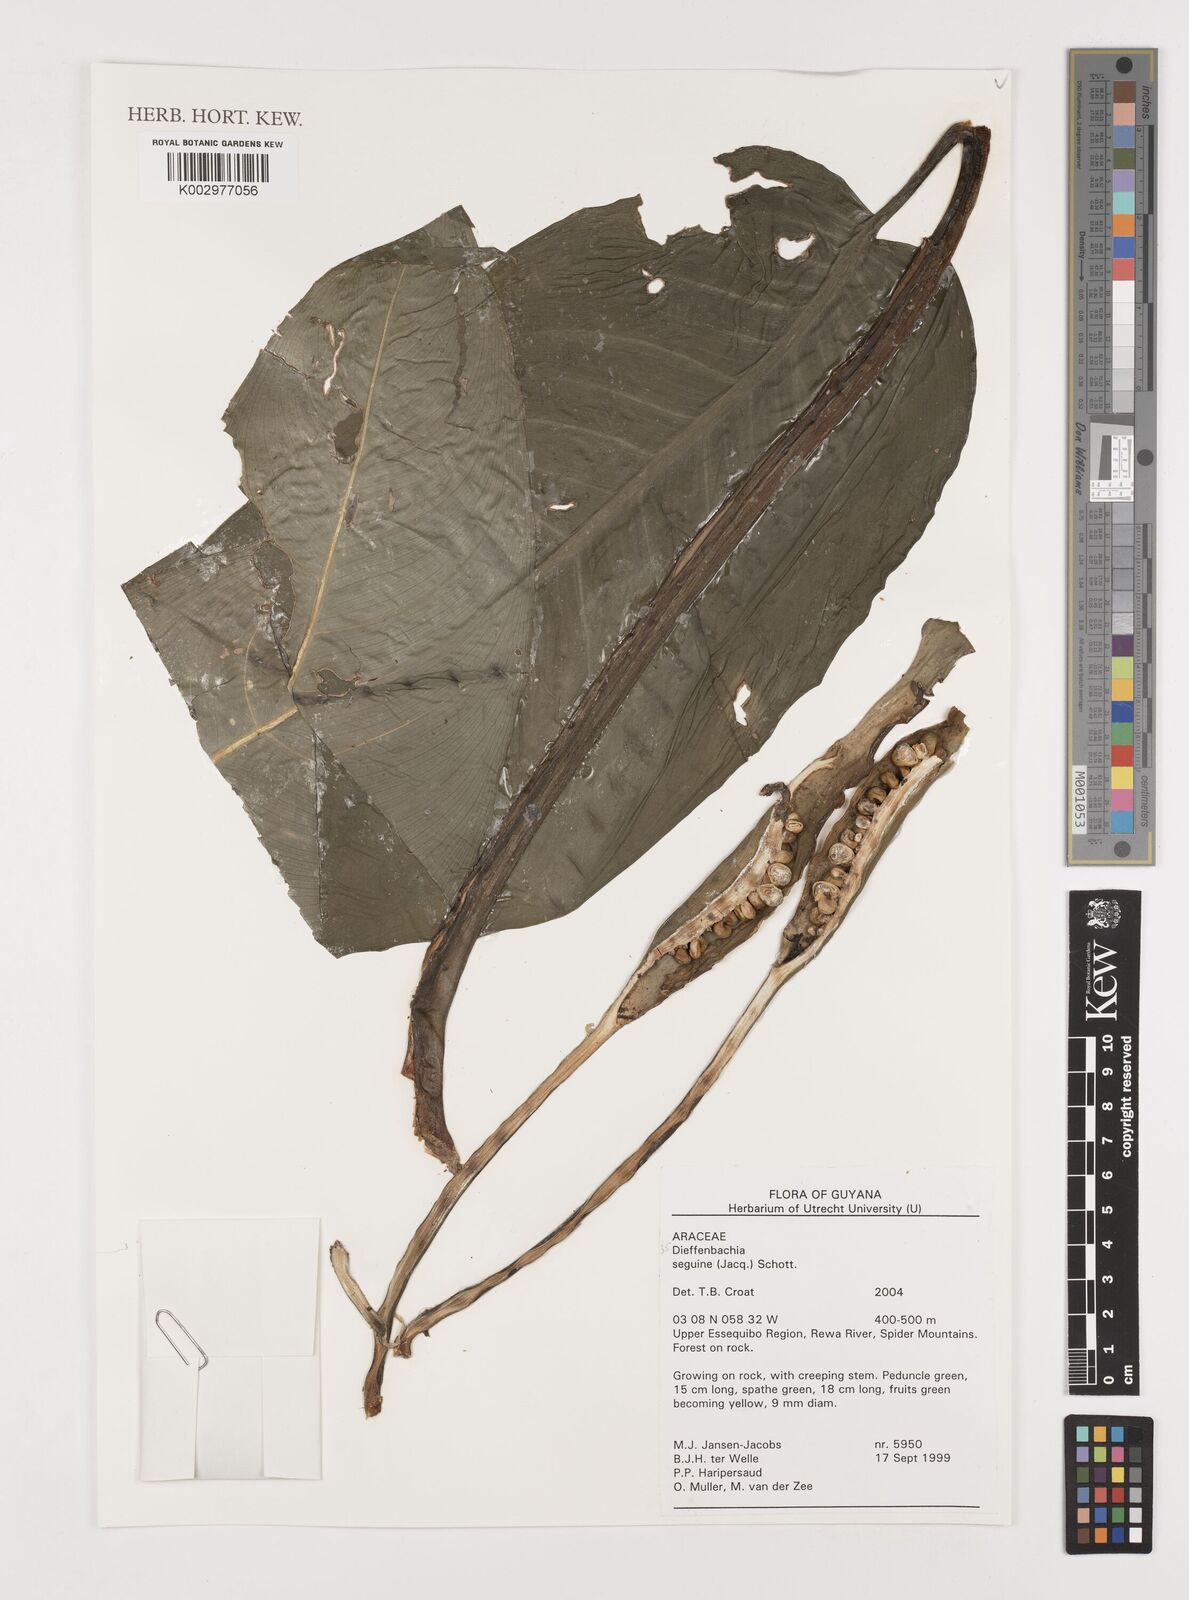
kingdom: Plantae
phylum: Tracheophyta
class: Liliopsida
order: Alismatales
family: Araceae
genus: Dieffenbachia
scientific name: Dieffenbachia seguine
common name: Dumbcane
